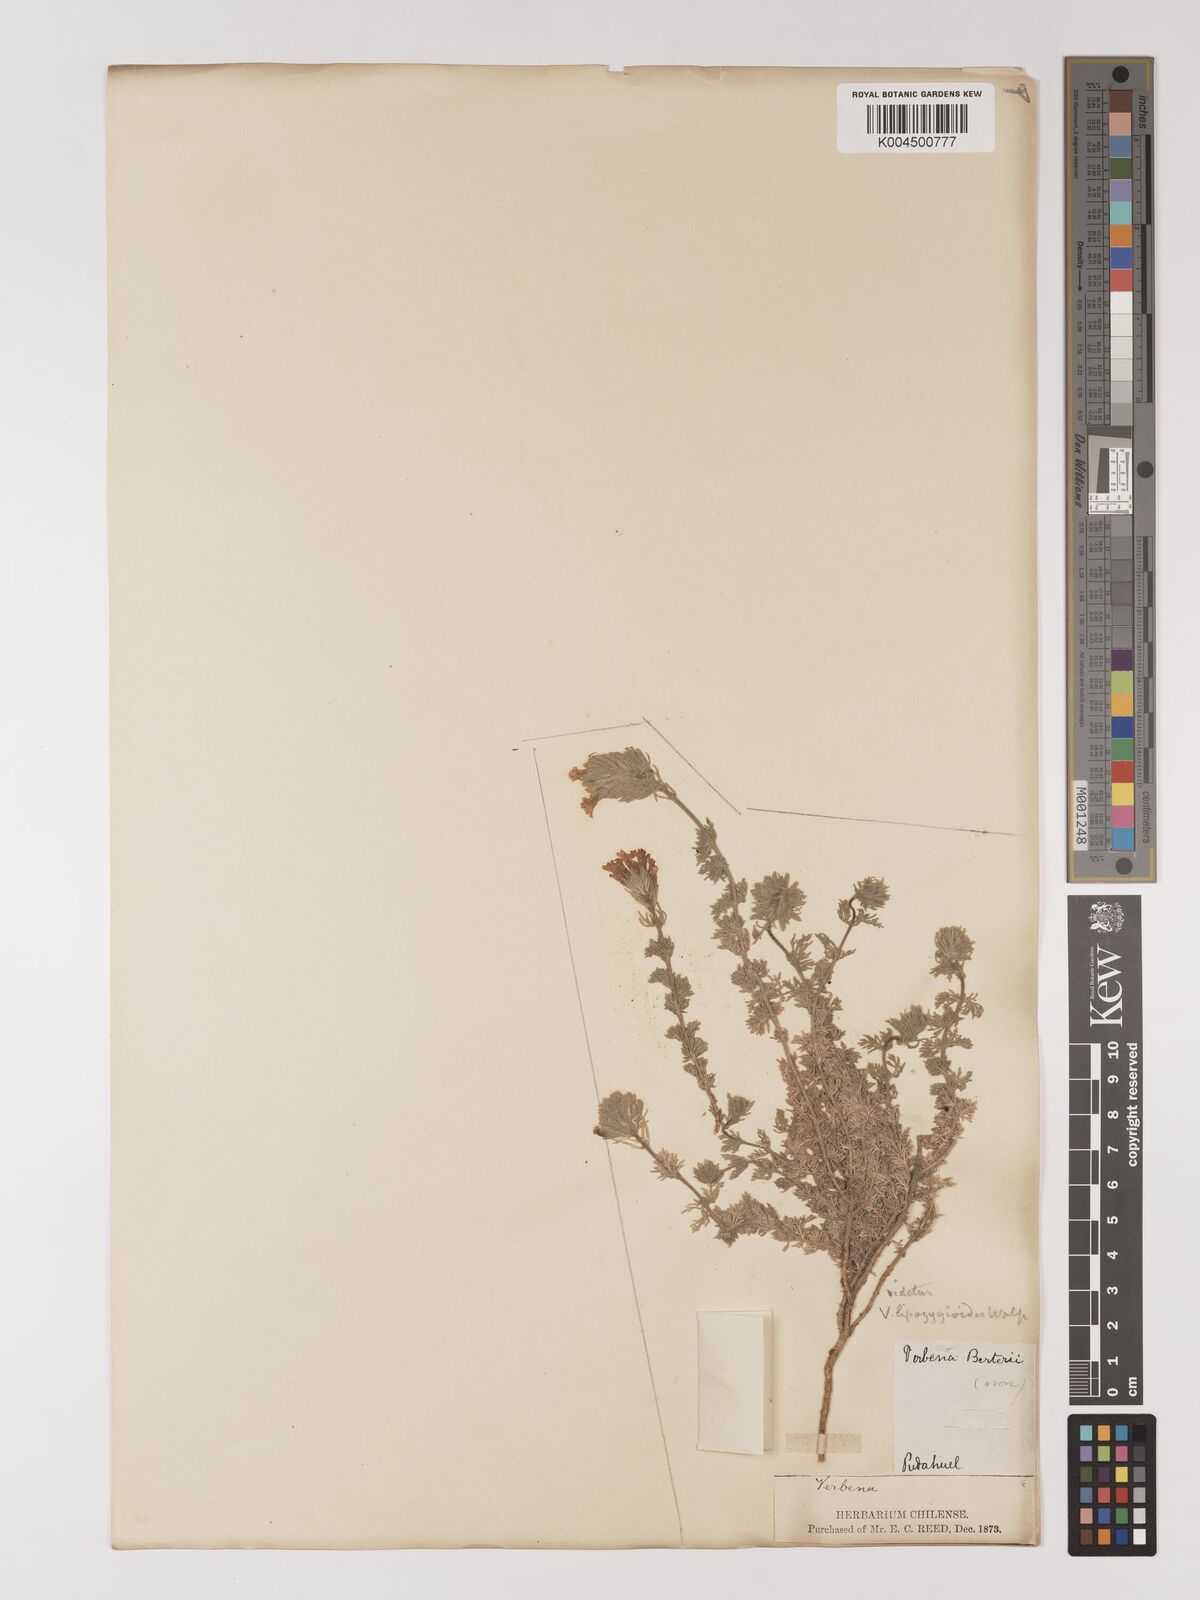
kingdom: Plantae
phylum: Tracheophyta
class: Magnoliopsida
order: Lamiales
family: Verbenaceae
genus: Verbena
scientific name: Verbena lipozygioides
